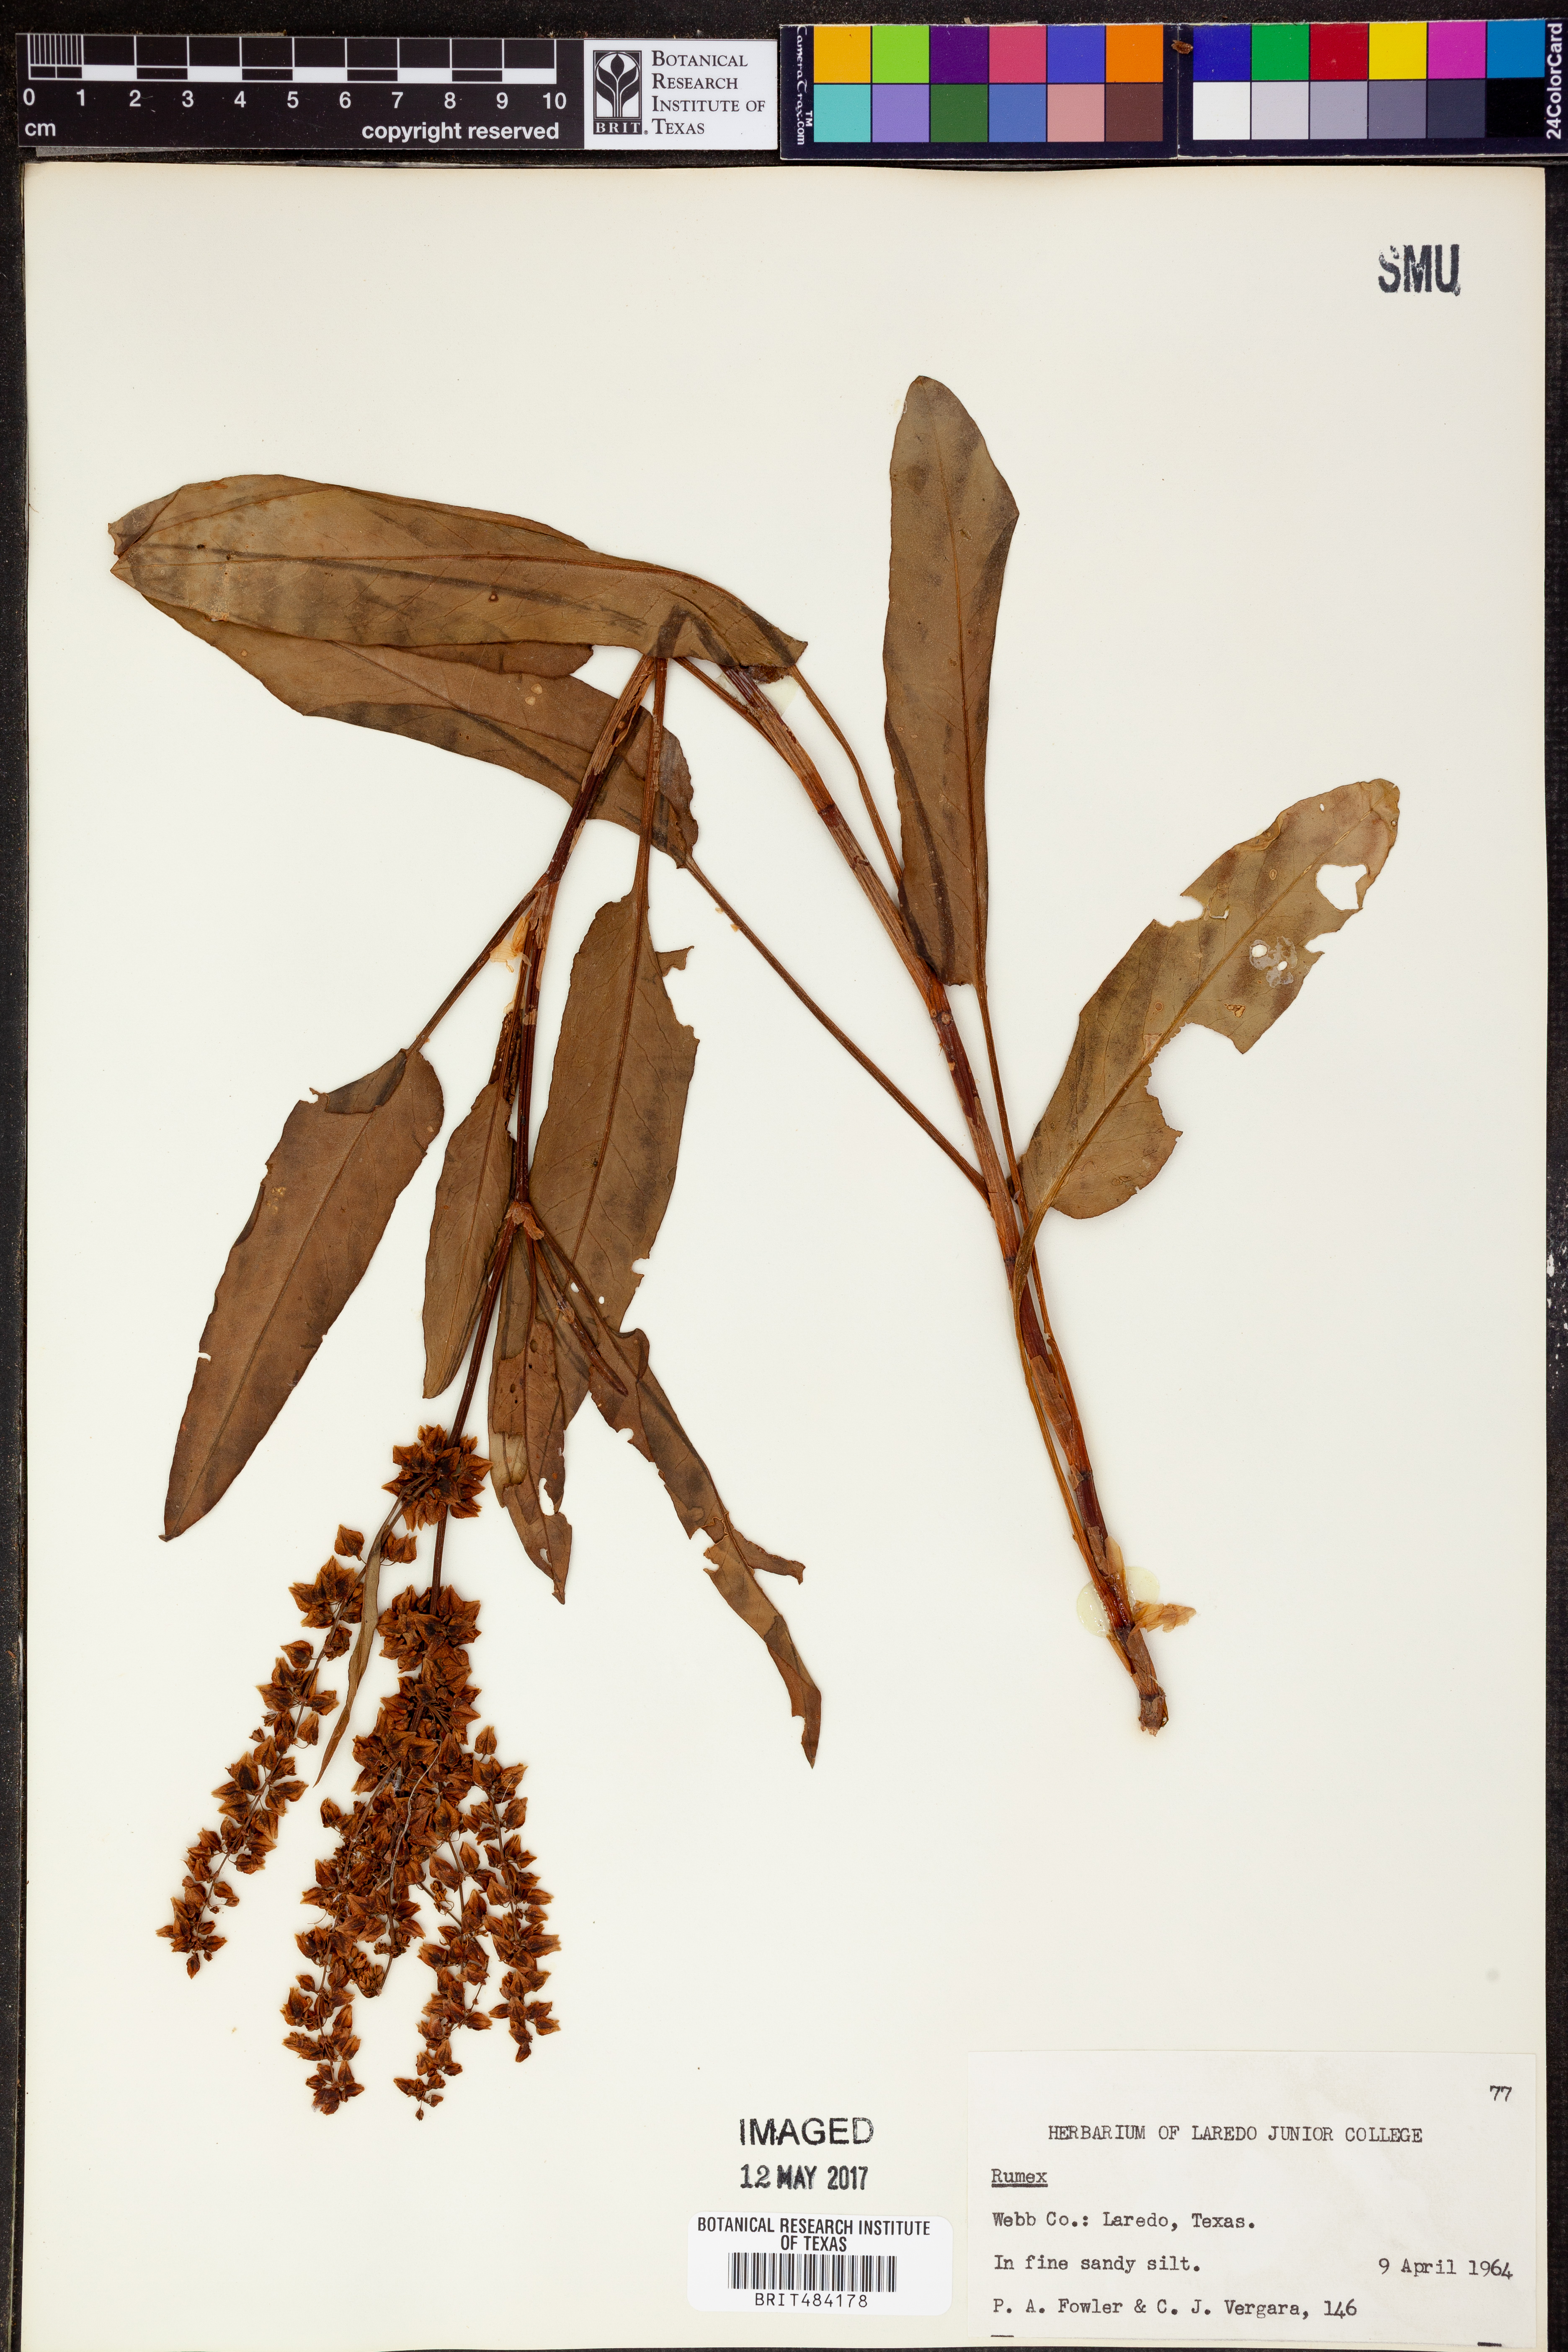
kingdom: Plantae
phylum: Tracheophyta
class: Magnoliopsida
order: Caryophyllales
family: Polygonaceae
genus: Rumex
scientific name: Rumex
